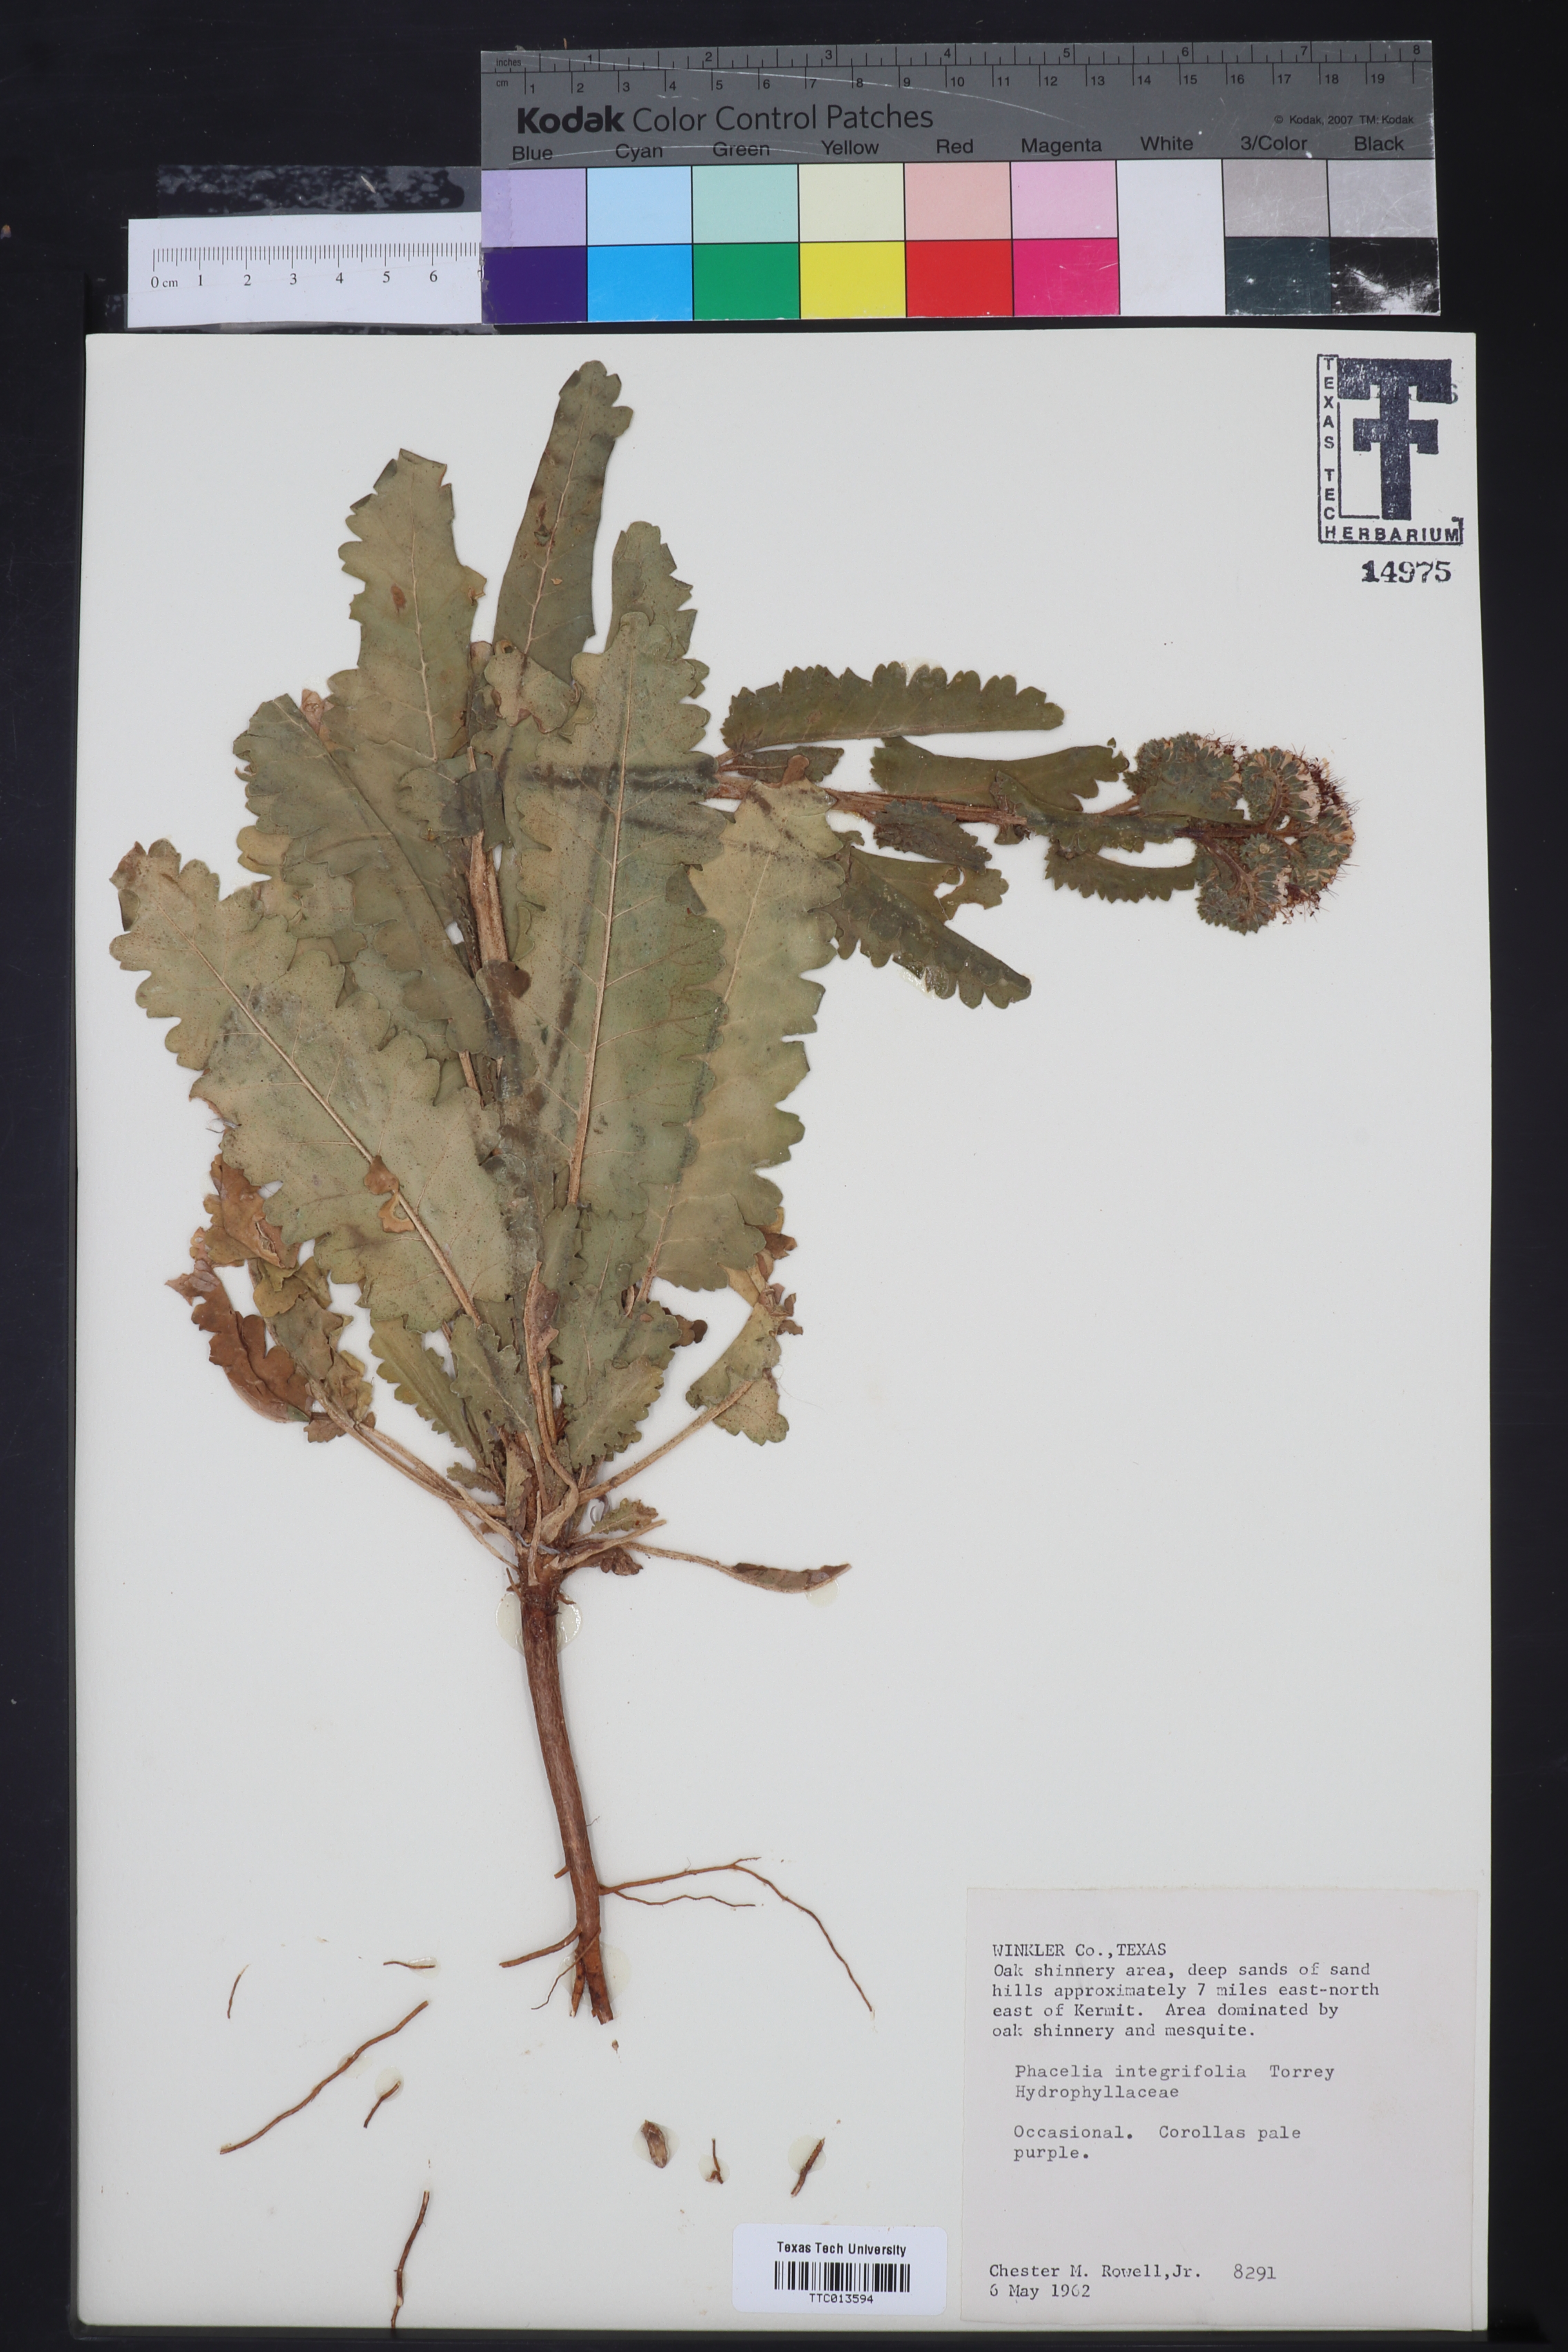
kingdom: Plantae
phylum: Tracheophyta
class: Magnoliopsida
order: Boraginales
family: Hydrophyllaceae
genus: Phacelia
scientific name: Phacelia integrifolia
